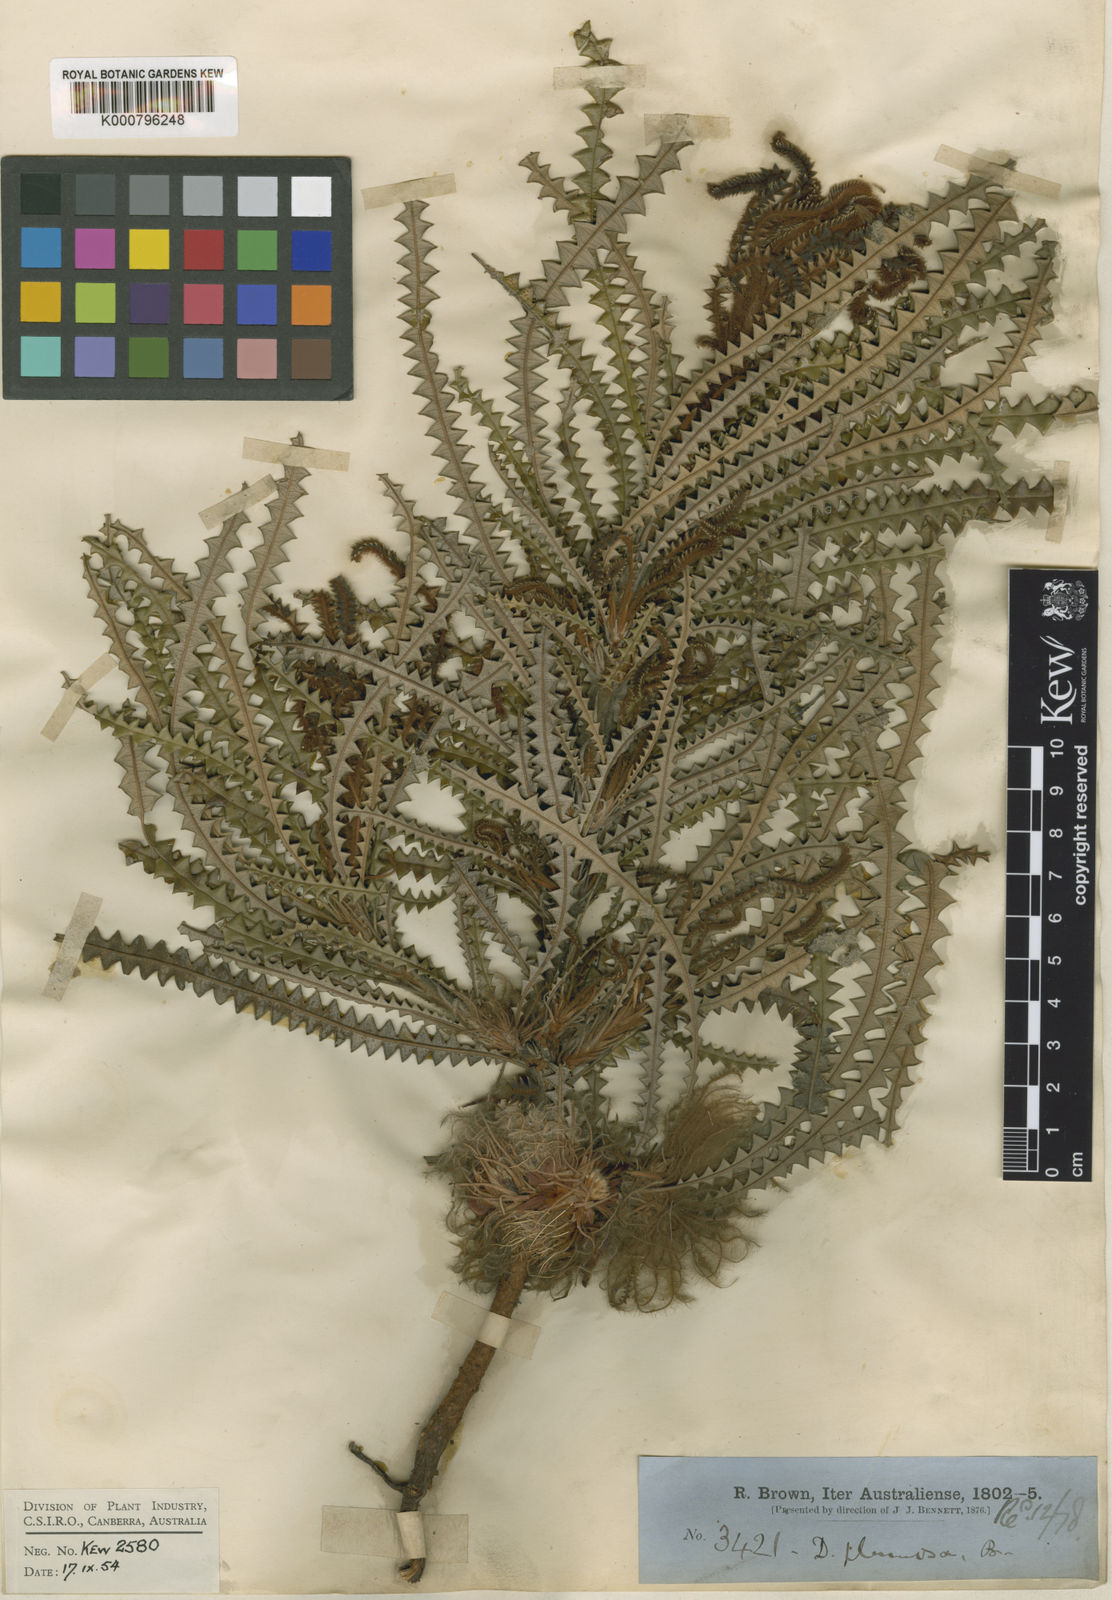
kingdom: Plantae
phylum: Tracheophyta
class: Magnoliopsida
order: Proteales
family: Proteaceae
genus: Banksia
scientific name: Banksia plumosa
